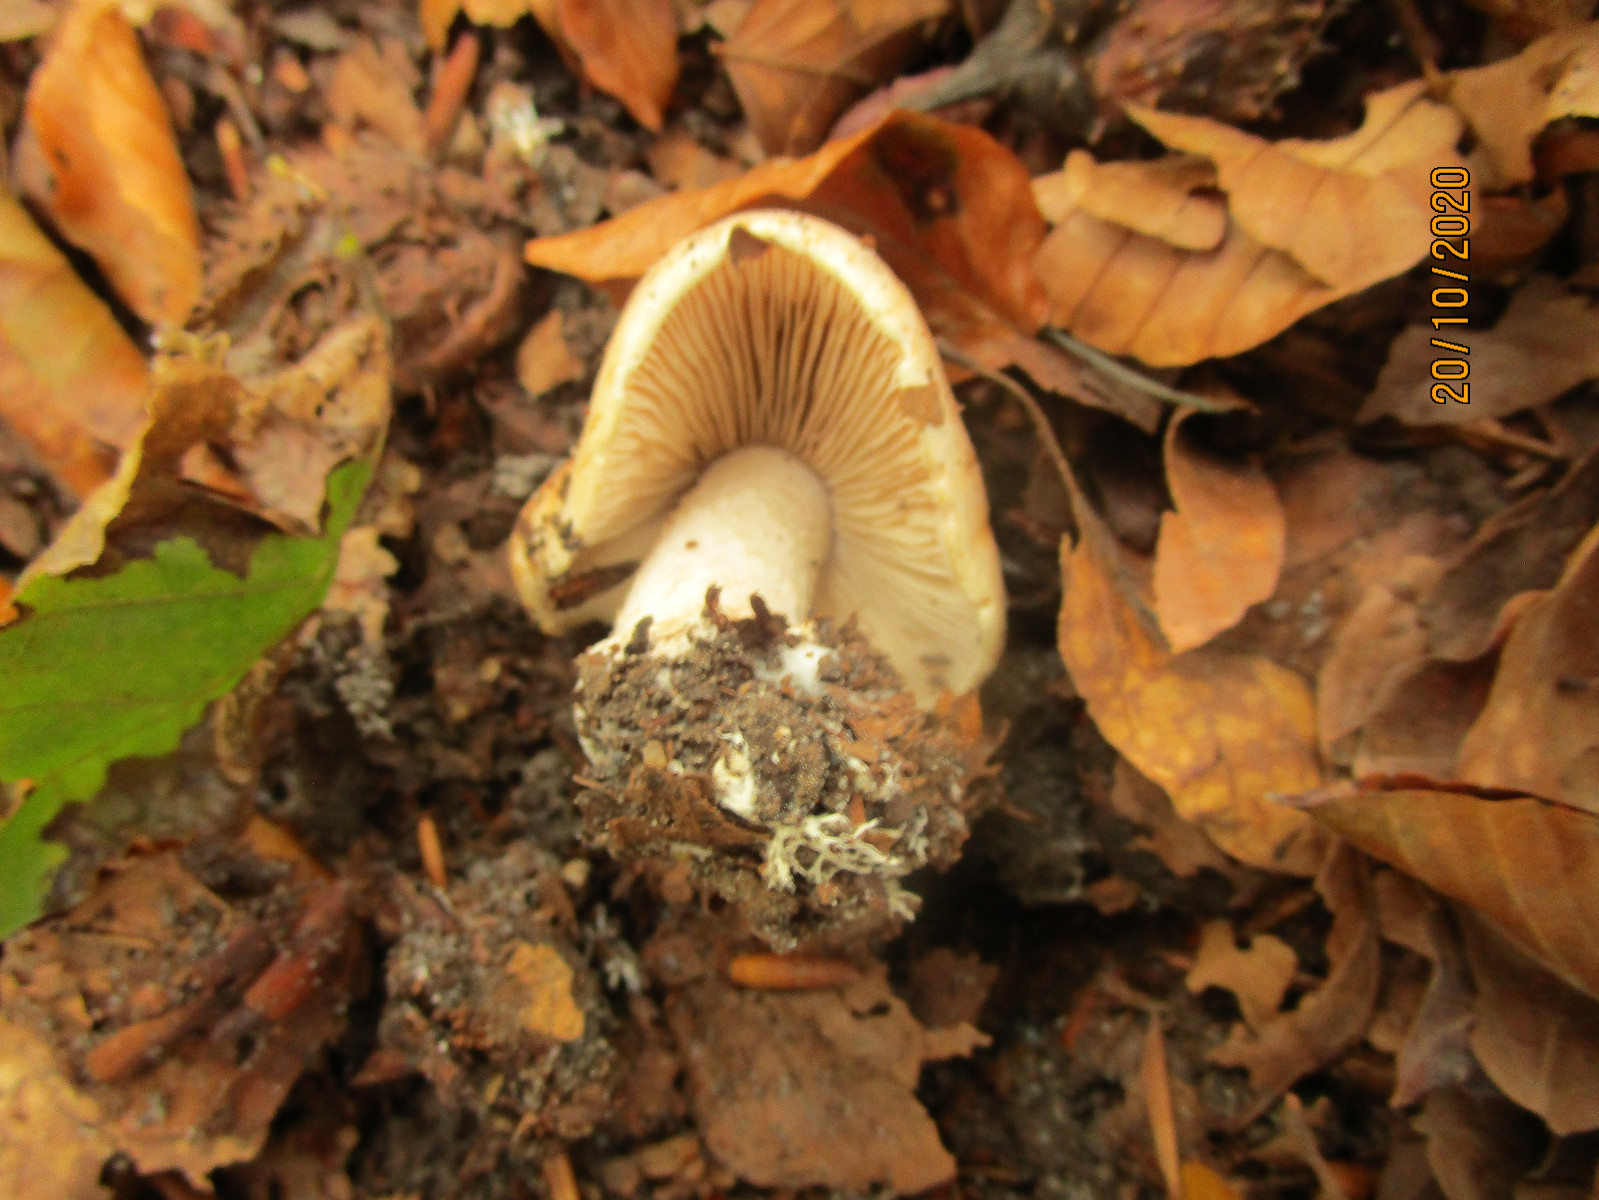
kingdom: Fungi
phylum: Basidiomycota
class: Agaricomycetes
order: Agaricales
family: Hymenogastraceae
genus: Hebeloma
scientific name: Hebeloma laterinum
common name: kakao-tåreblad
